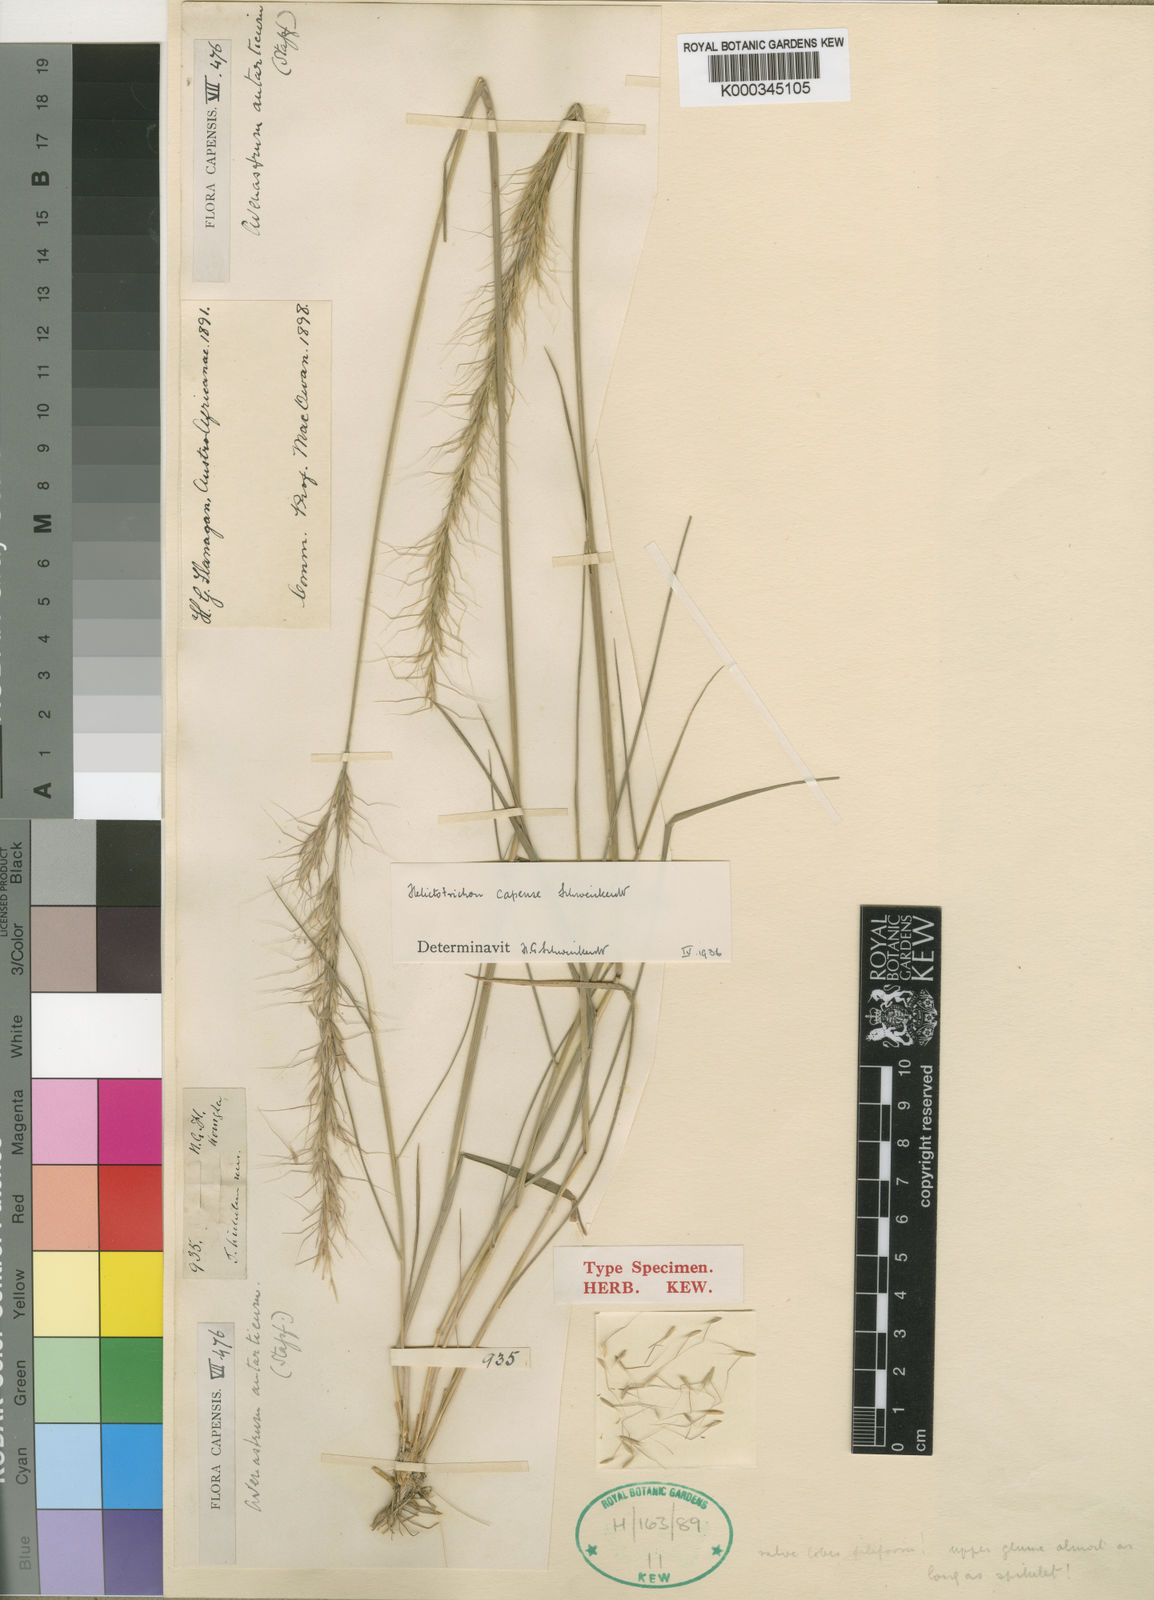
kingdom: Plantae
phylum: Tracheophyta
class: Liliopsida
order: Poales
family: Poaceae
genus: Trisetopsis
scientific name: Trisetopsis capensis
